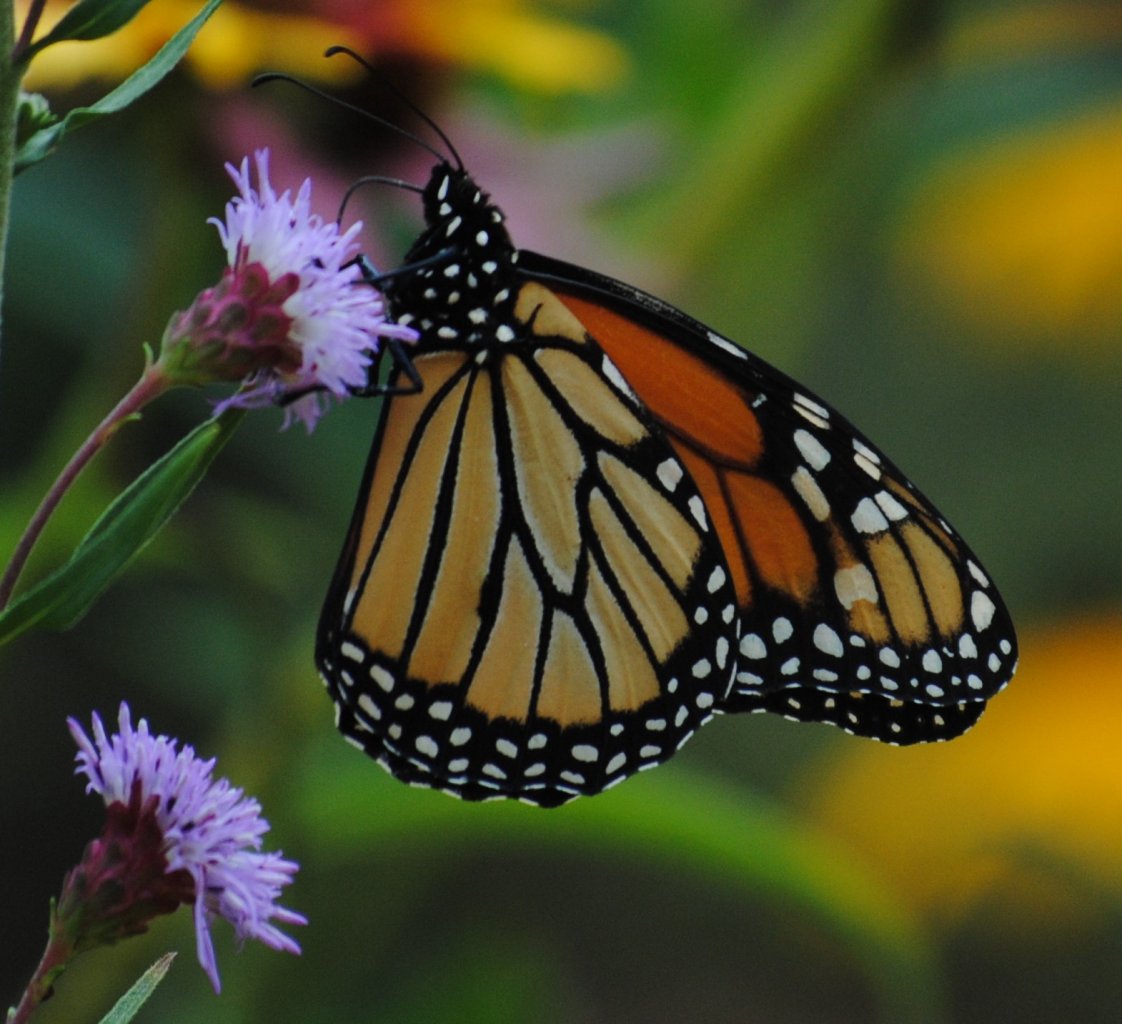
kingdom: Animalia
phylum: Arthropoda
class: Insecta
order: Lepidoptera
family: Nymphalidae
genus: Danaus
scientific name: Danaus plexippus
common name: Monarch
